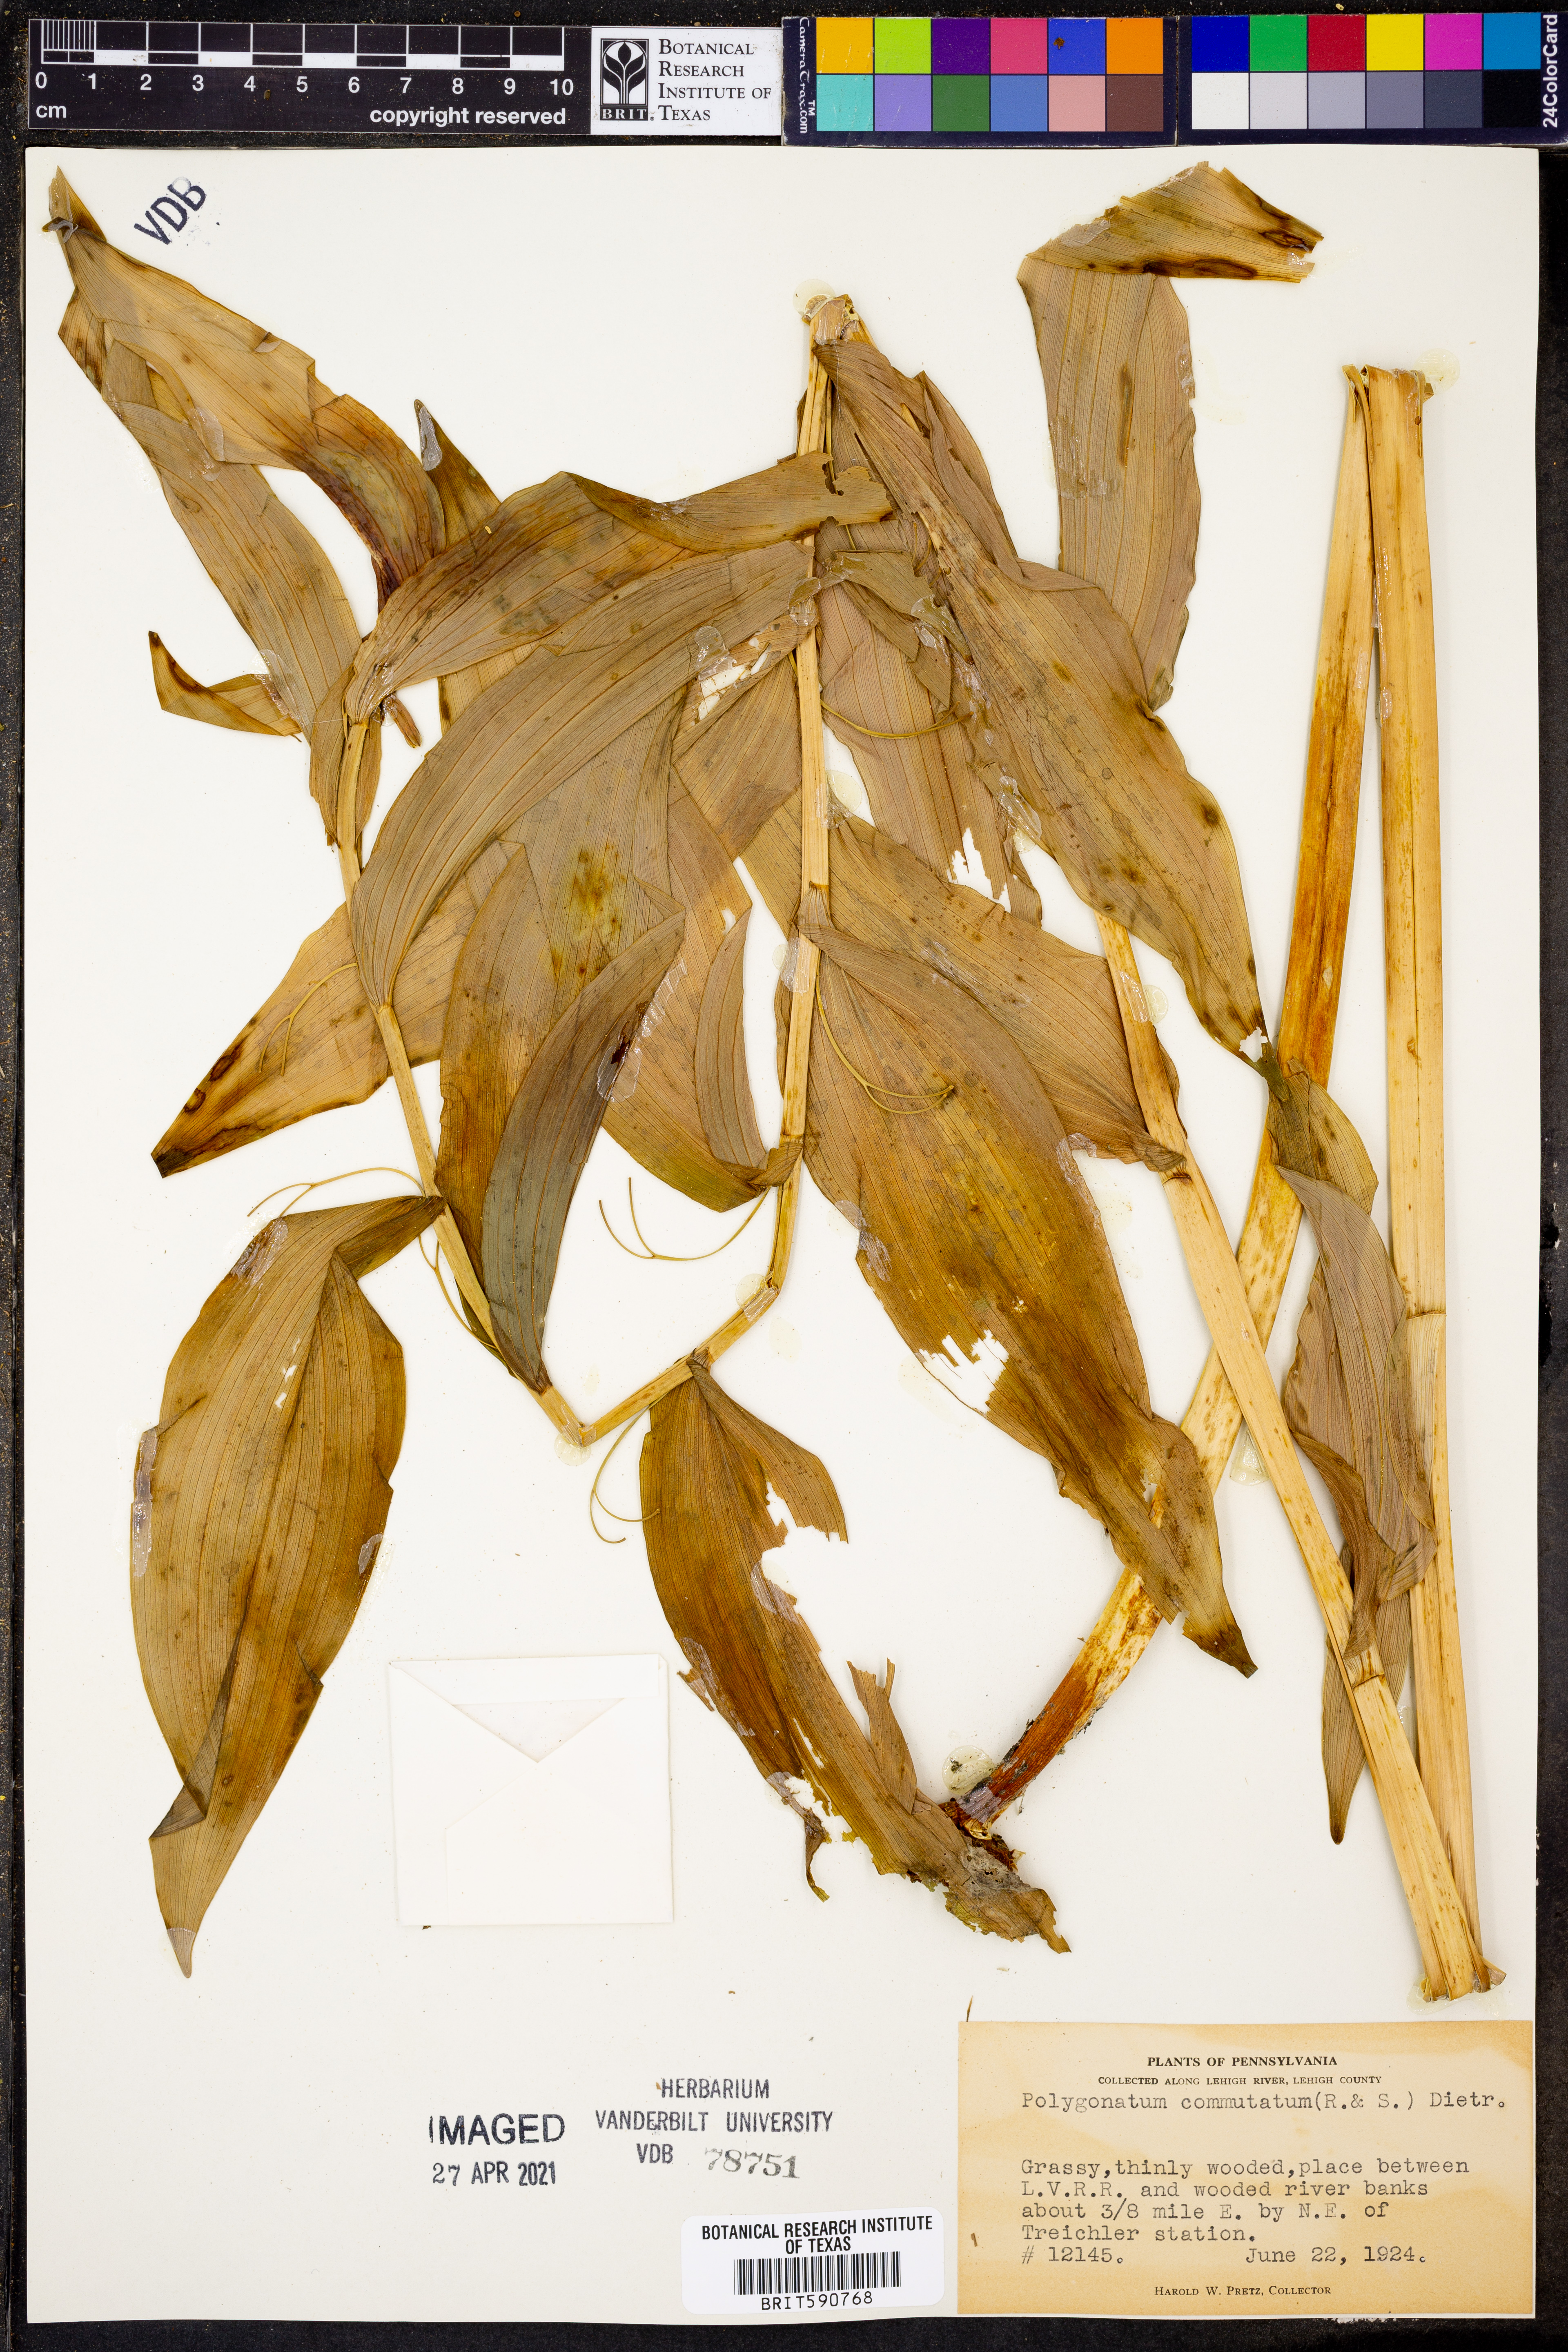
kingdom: Plantae
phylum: Tracheophyta
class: Liliopsida
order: Asparagales
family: Asparagaceae
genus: Polygonatum
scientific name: Polygonatum biflorum
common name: American solomon's-seal
